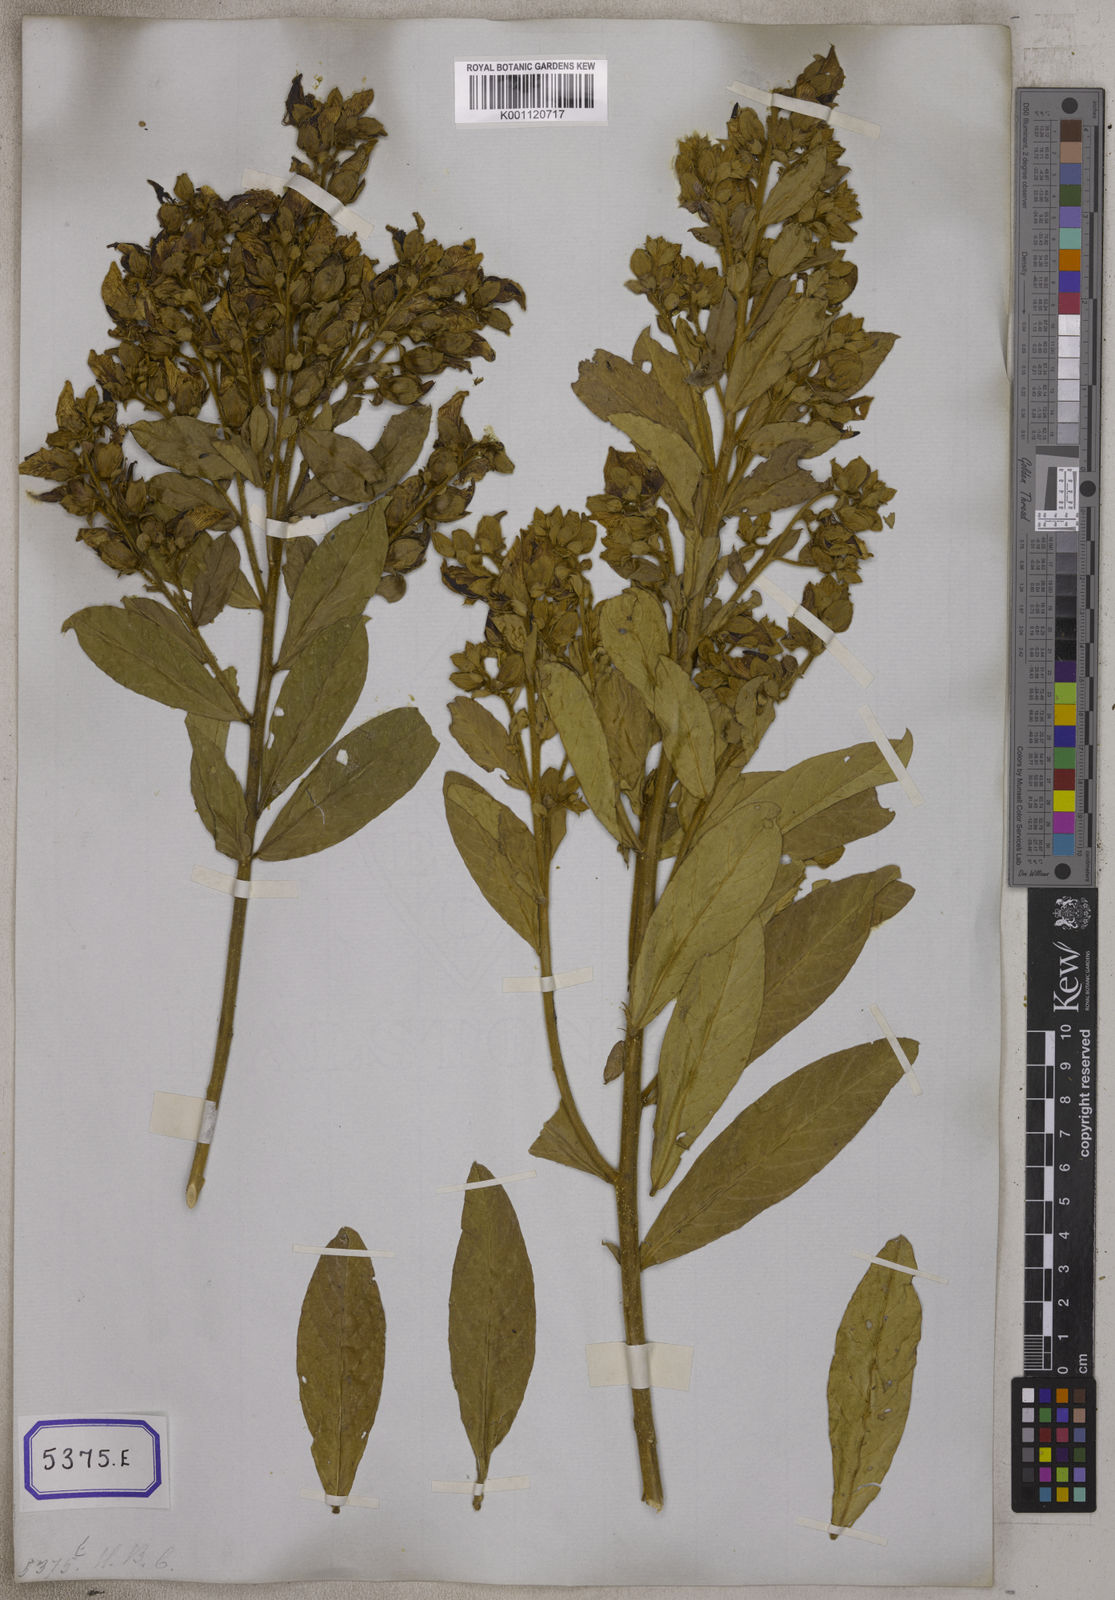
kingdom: Plantae
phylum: Tracheophyta
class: Magnoliopsida
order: Fabales
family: Fabaceae
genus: Crotalaria
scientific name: Crotalaria berteroana
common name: Berteron's rattlebox
